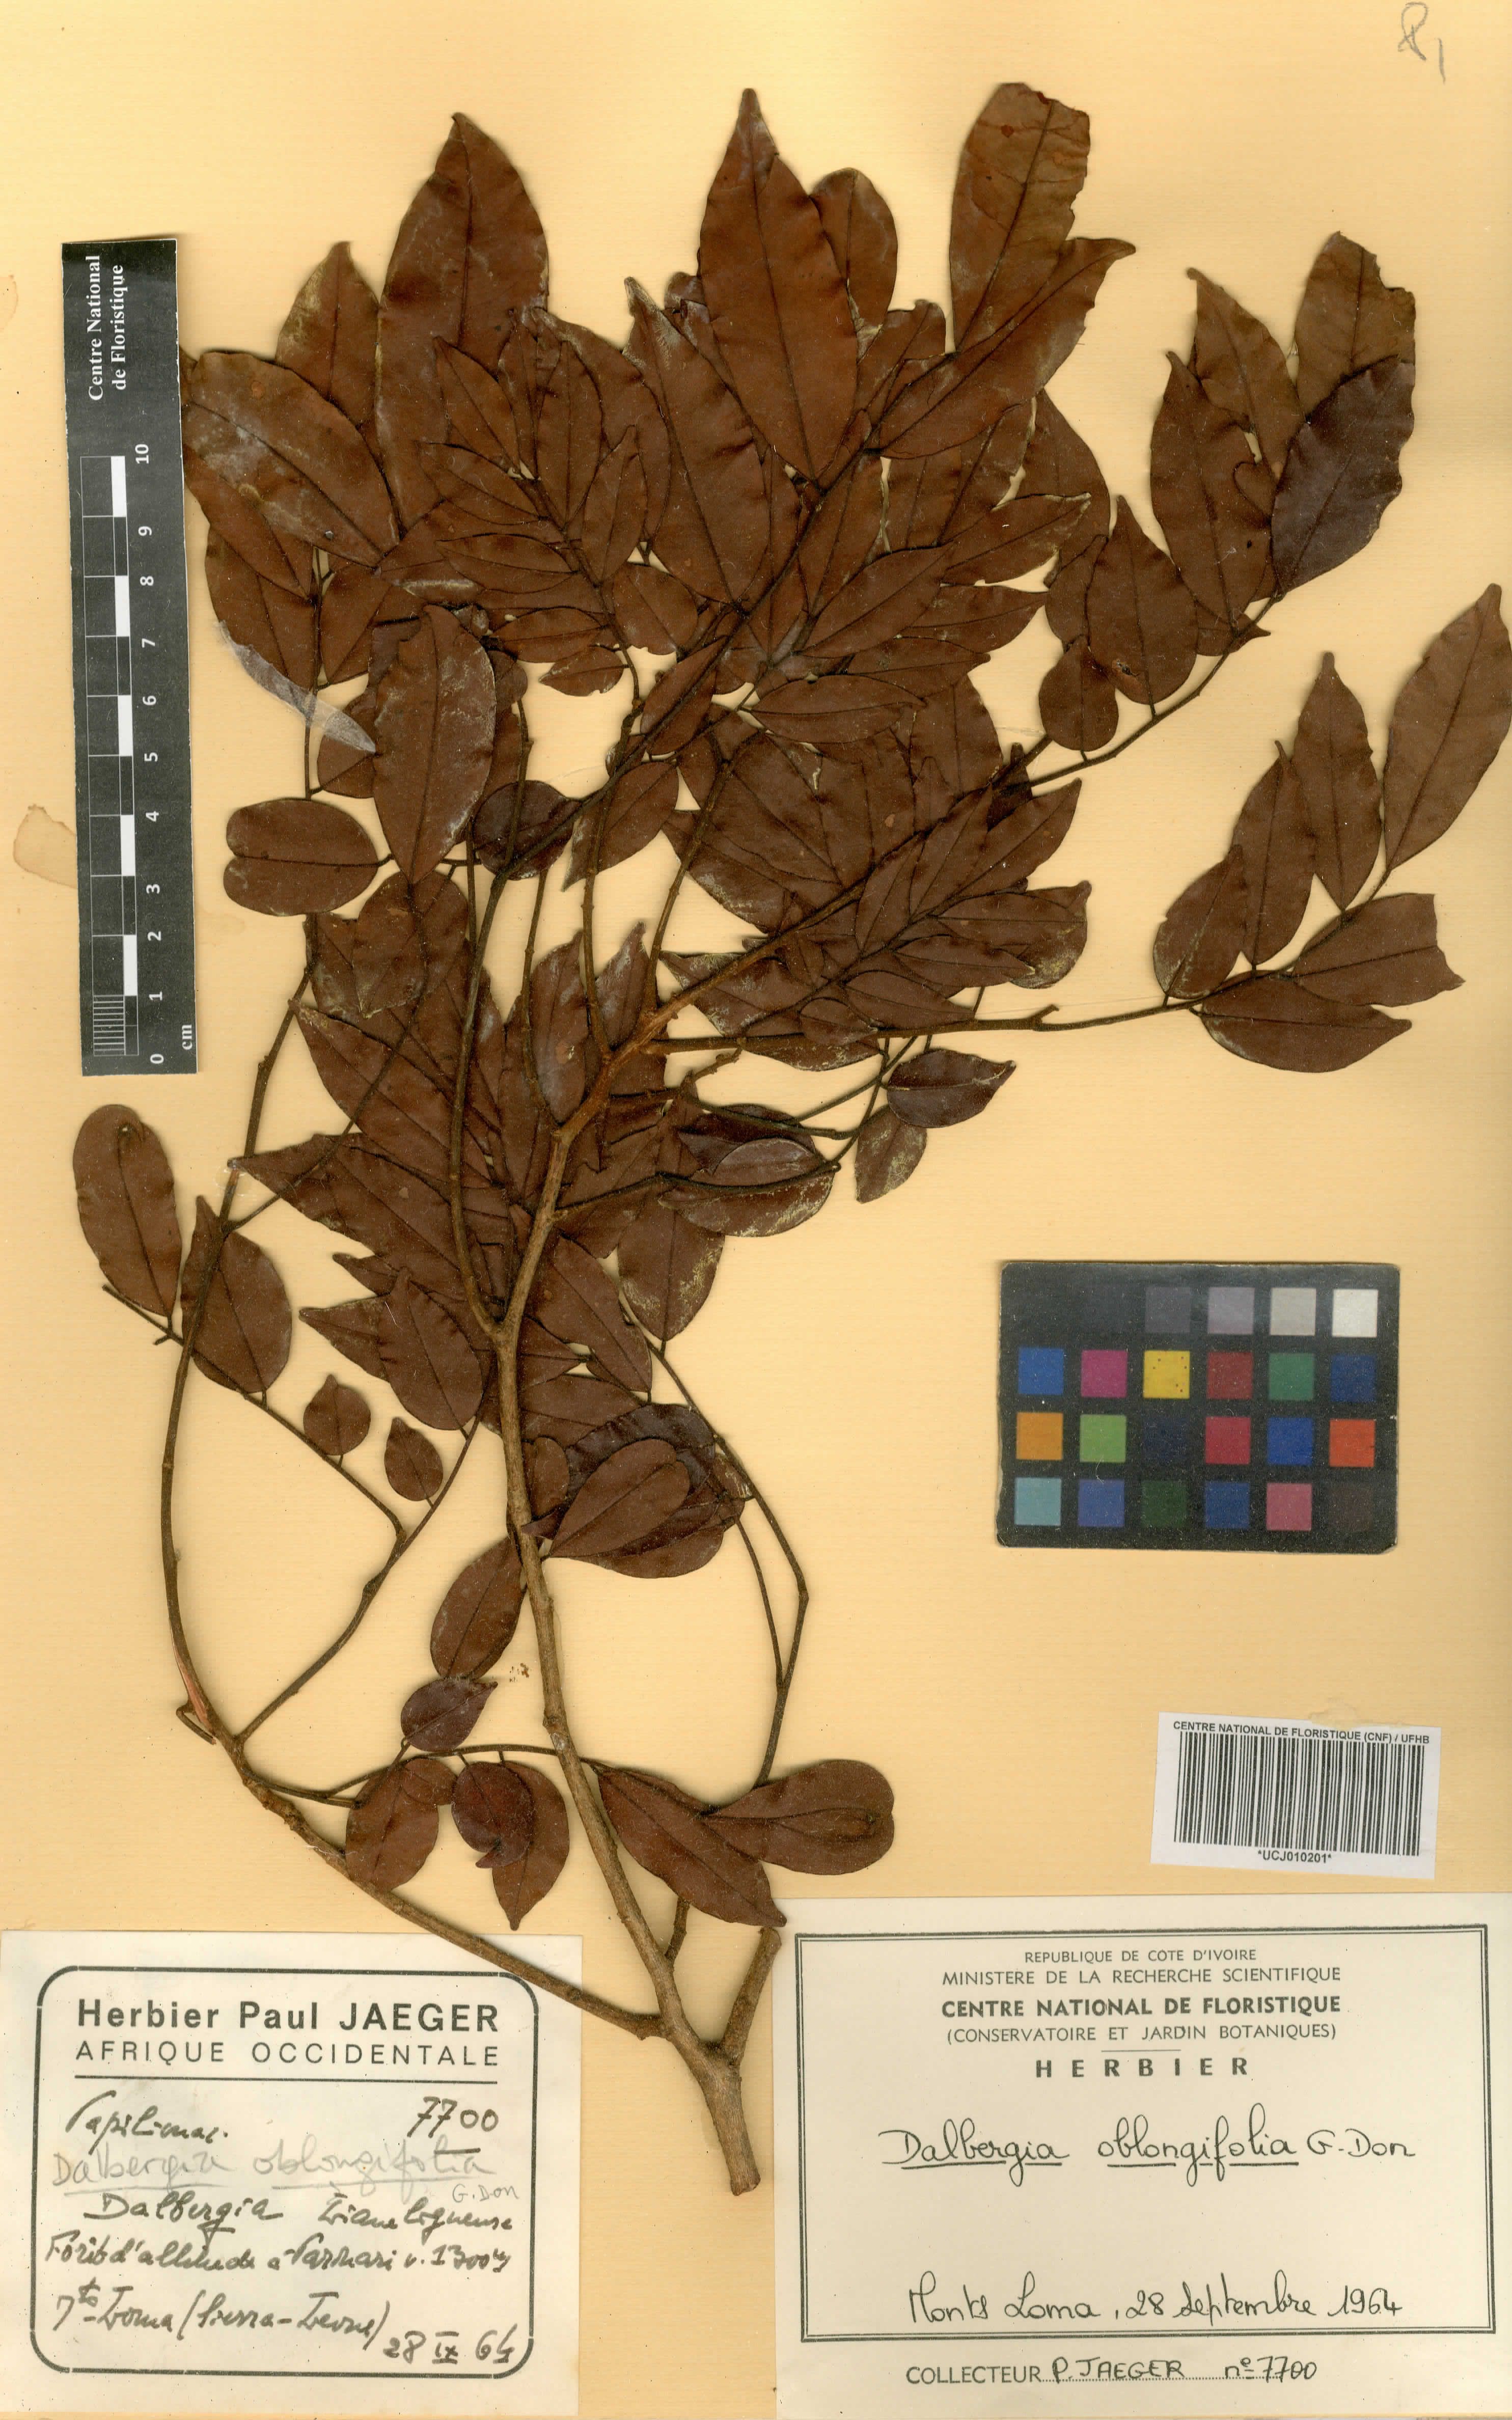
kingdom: Plantae
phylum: Tracheophyta
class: Magnoliopsida
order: Fabales
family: Fabaceae
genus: Dalbergia
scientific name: Dalbergia oblongifolia
